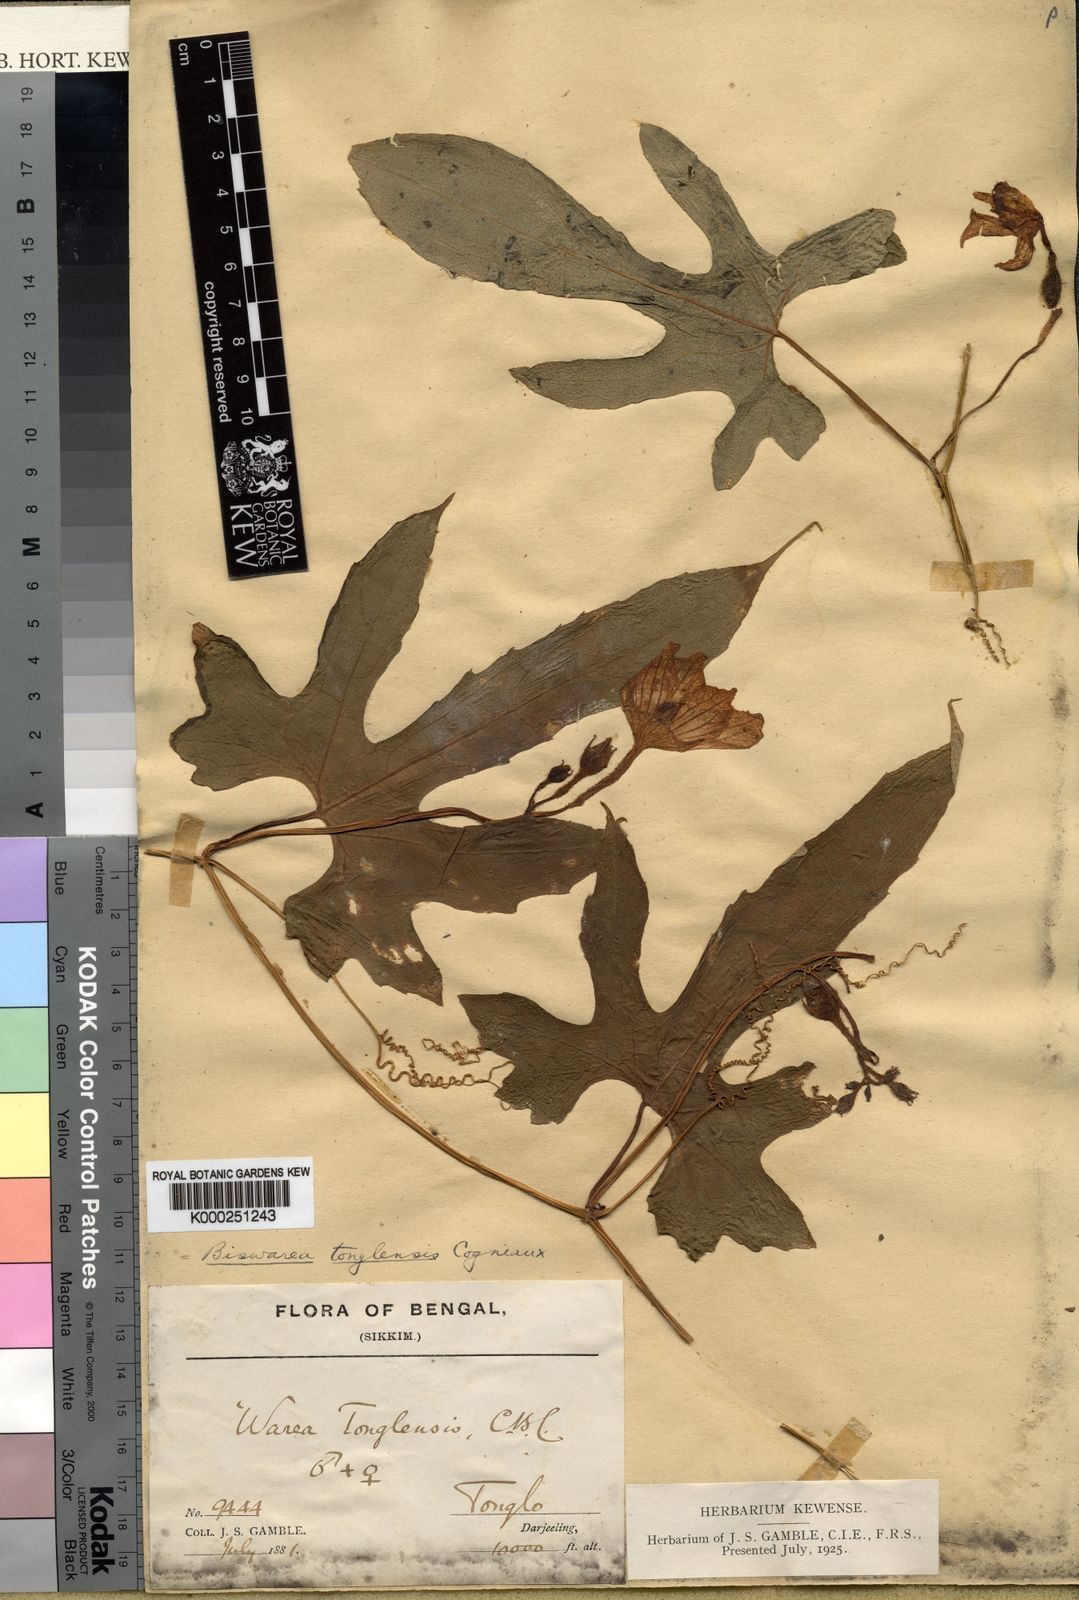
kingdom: Plantae
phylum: Tracheophyta
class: Magnoliopsida
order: Cucurbitales
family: Cucurbitaceae
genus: Herpetospermum
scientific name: Herpetospermum tonglense
